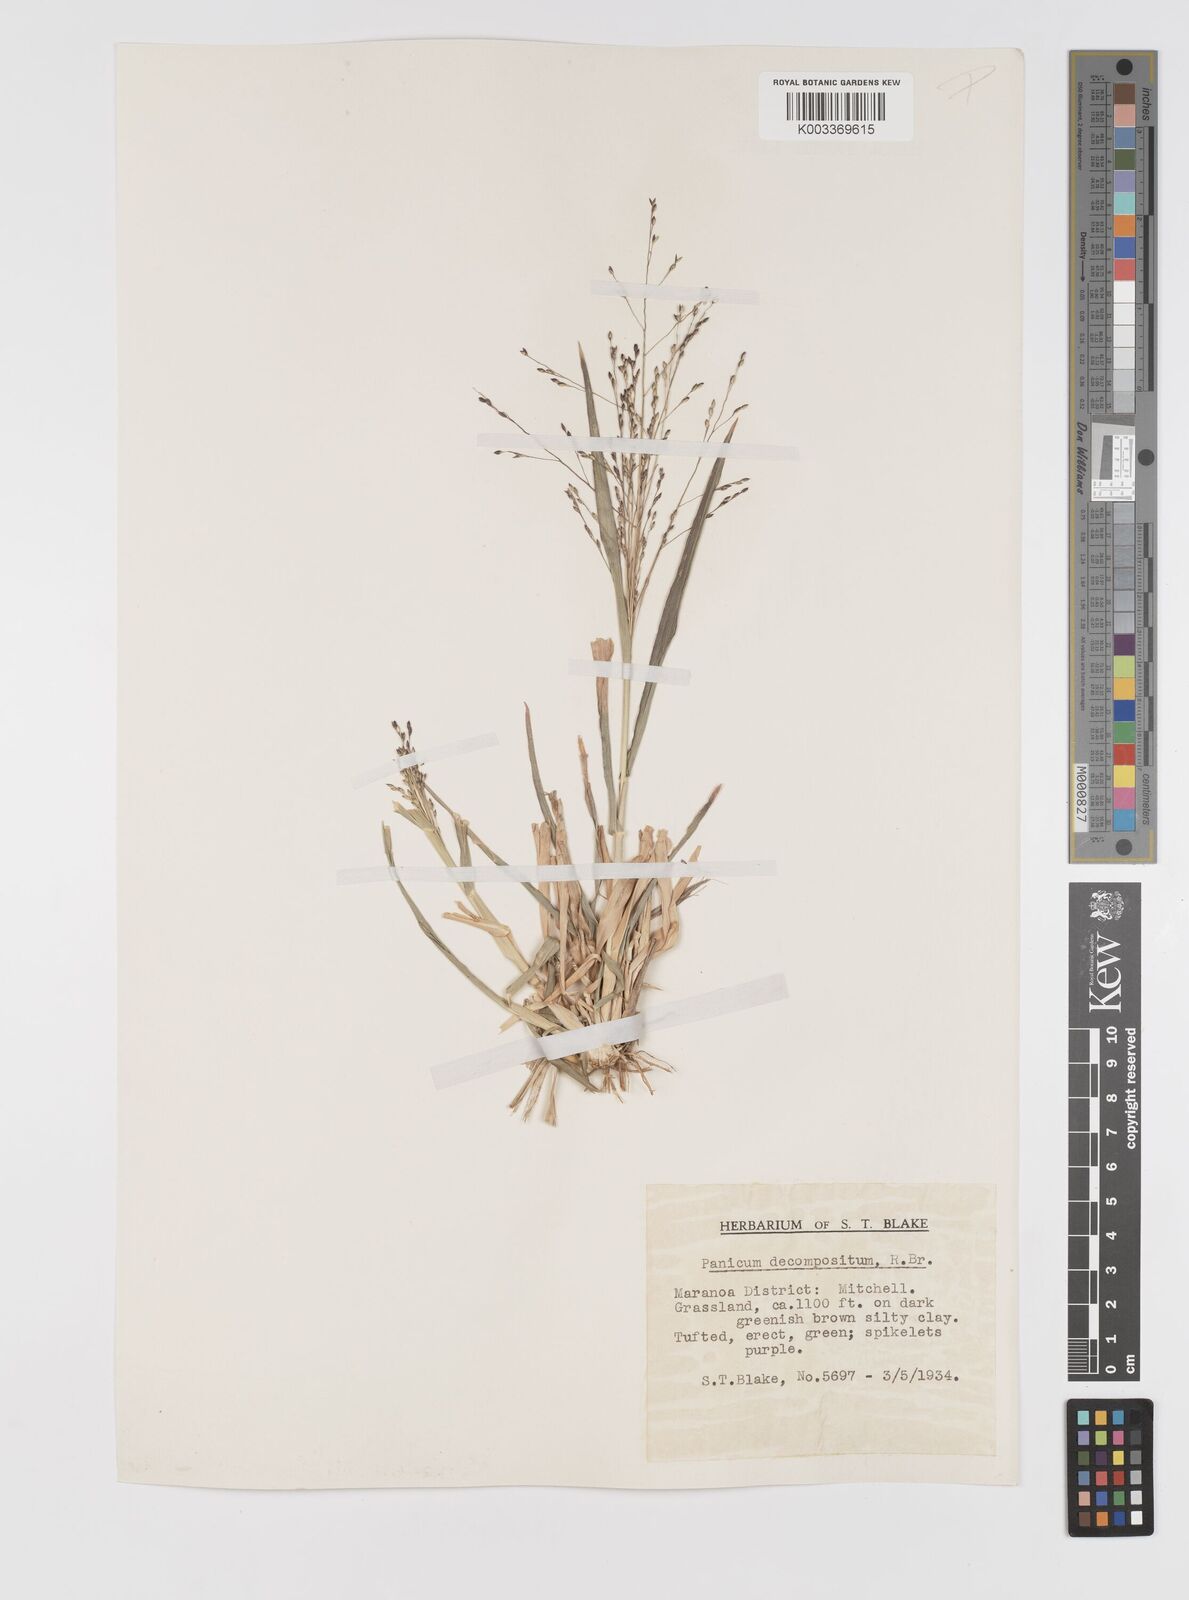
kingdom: Plantae
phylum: Tracheophyta
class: Liliopsida
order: Poales
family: Poaceae
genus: Panicum
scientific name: Panicum decompositum
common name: Australian millet
